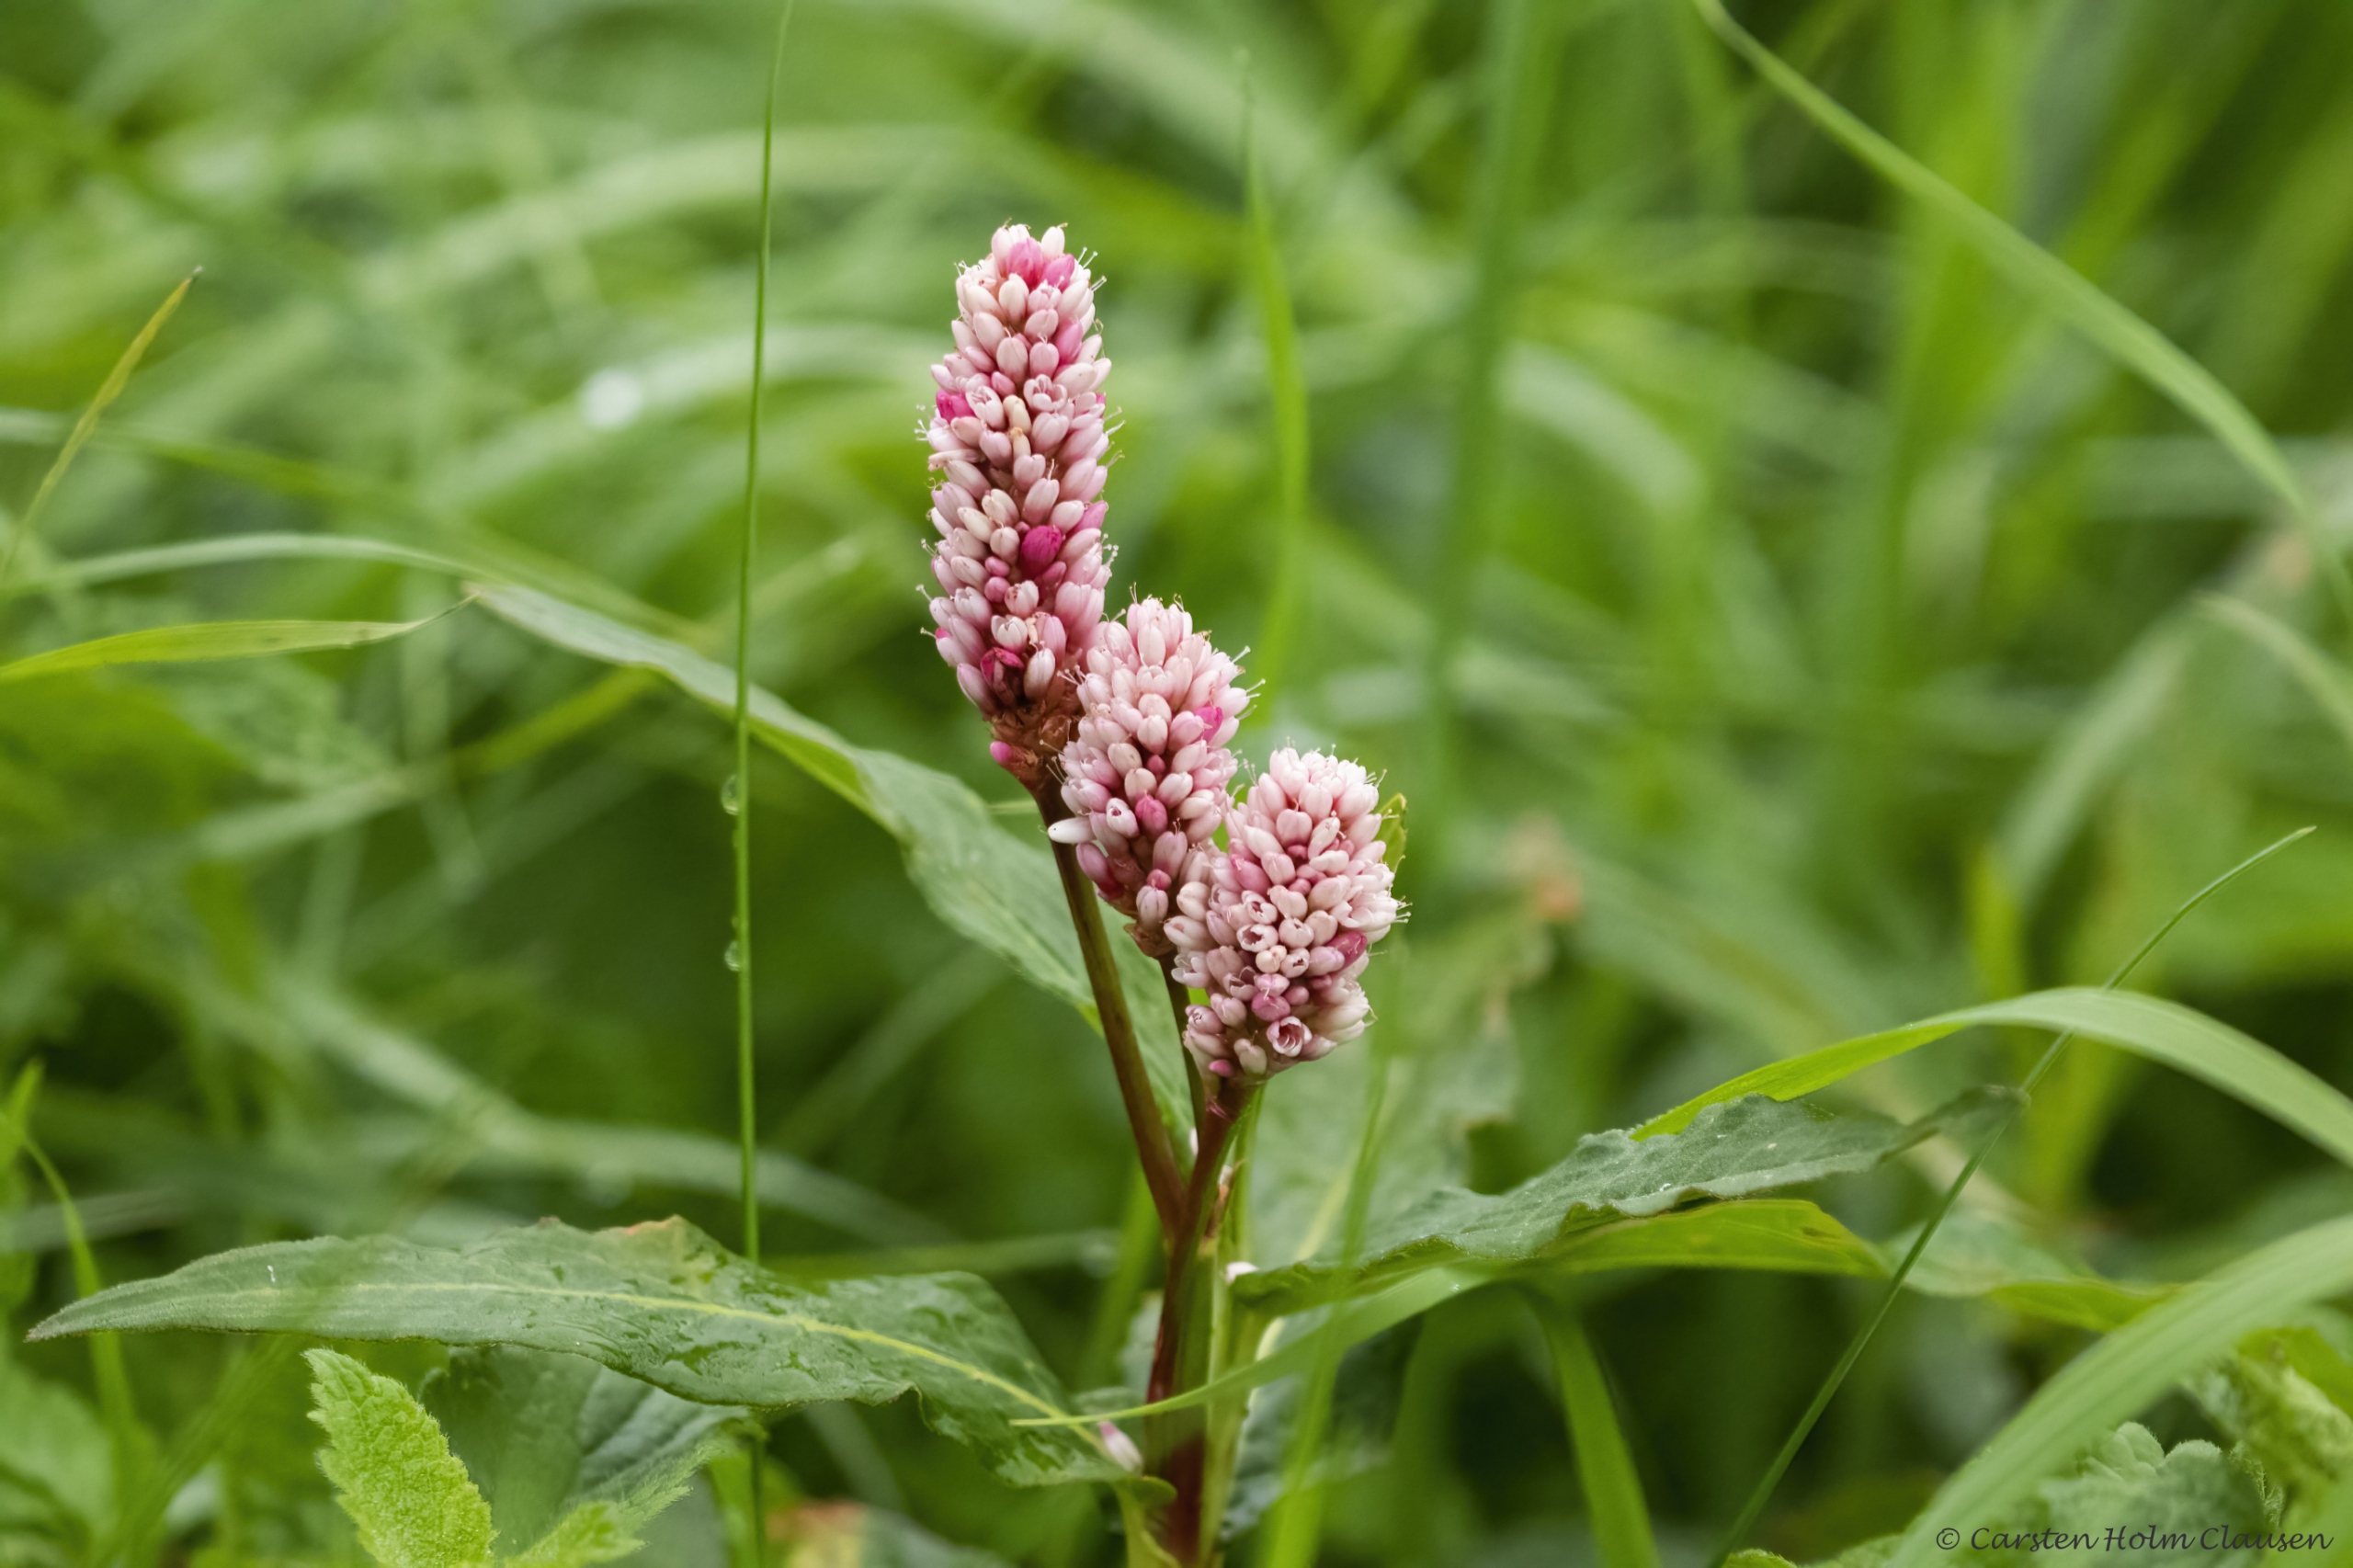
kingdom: Plantae
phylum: Tracheophyta
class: Magnoliopsida
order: Caryophyllales
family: Polygonaceae
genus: Persicaria
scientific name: Persicaria amphibia
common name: Vand-pileurt
